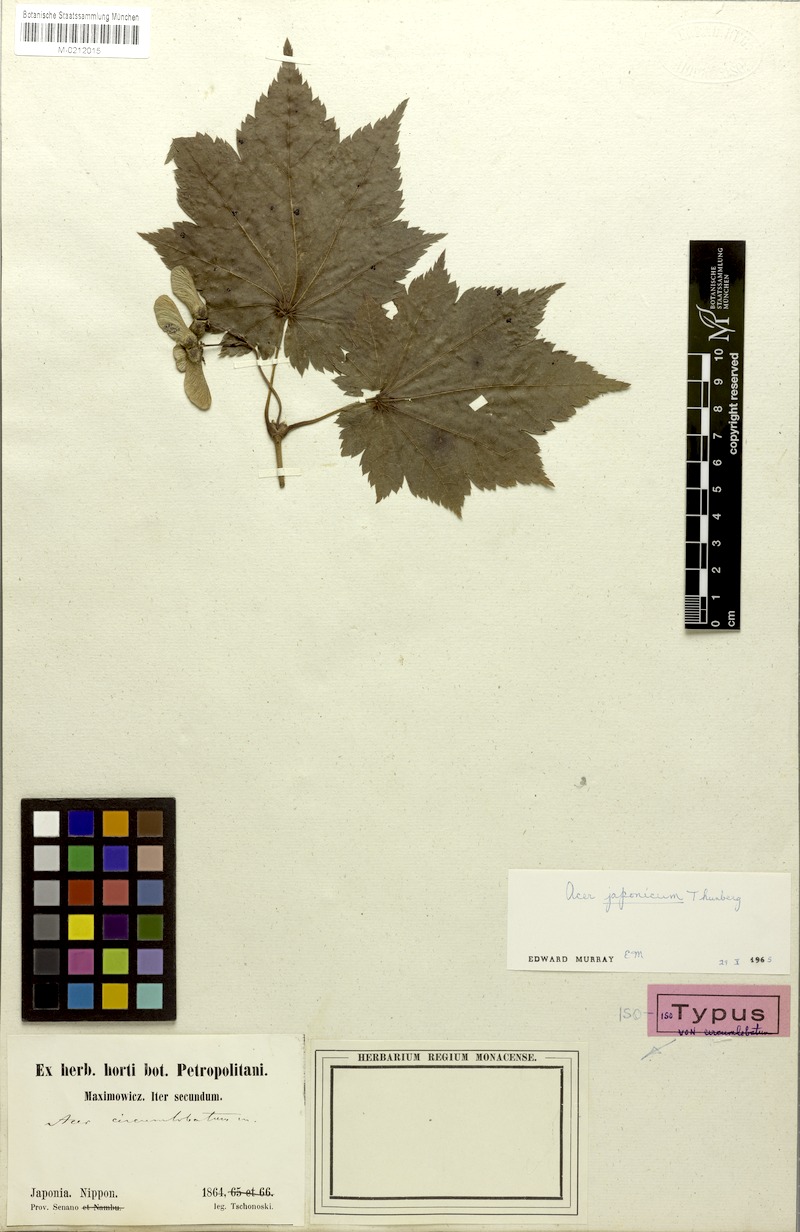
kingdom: Plantae
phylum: Tracheophyta
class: Magnoliopsida
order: Sapindales
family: Sapindaceae
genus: Acer
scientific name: Acer japonicum
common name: Amur maple
